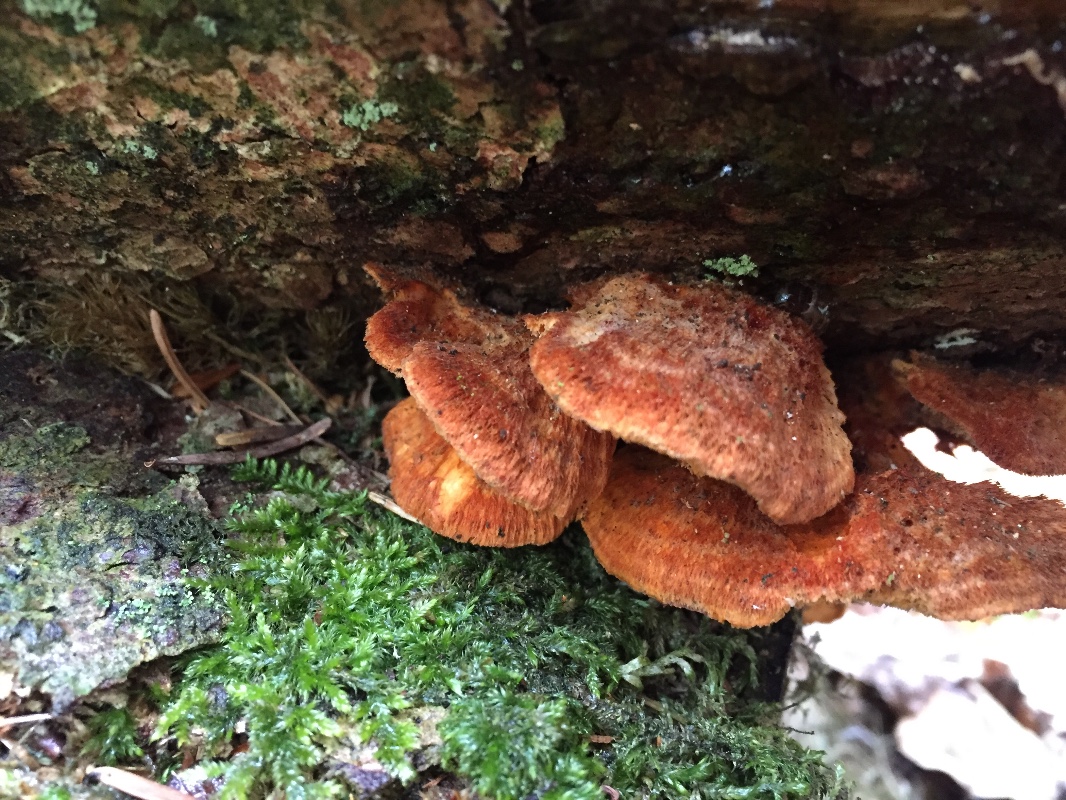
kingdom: Fungi
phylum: Basidiomycota
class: Agaricomycetes
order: Polyporales
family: Pycnoporellaceae
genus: Pycnoporellus
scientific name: Pycnoporellus fulgens
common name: flammeporesvamp
